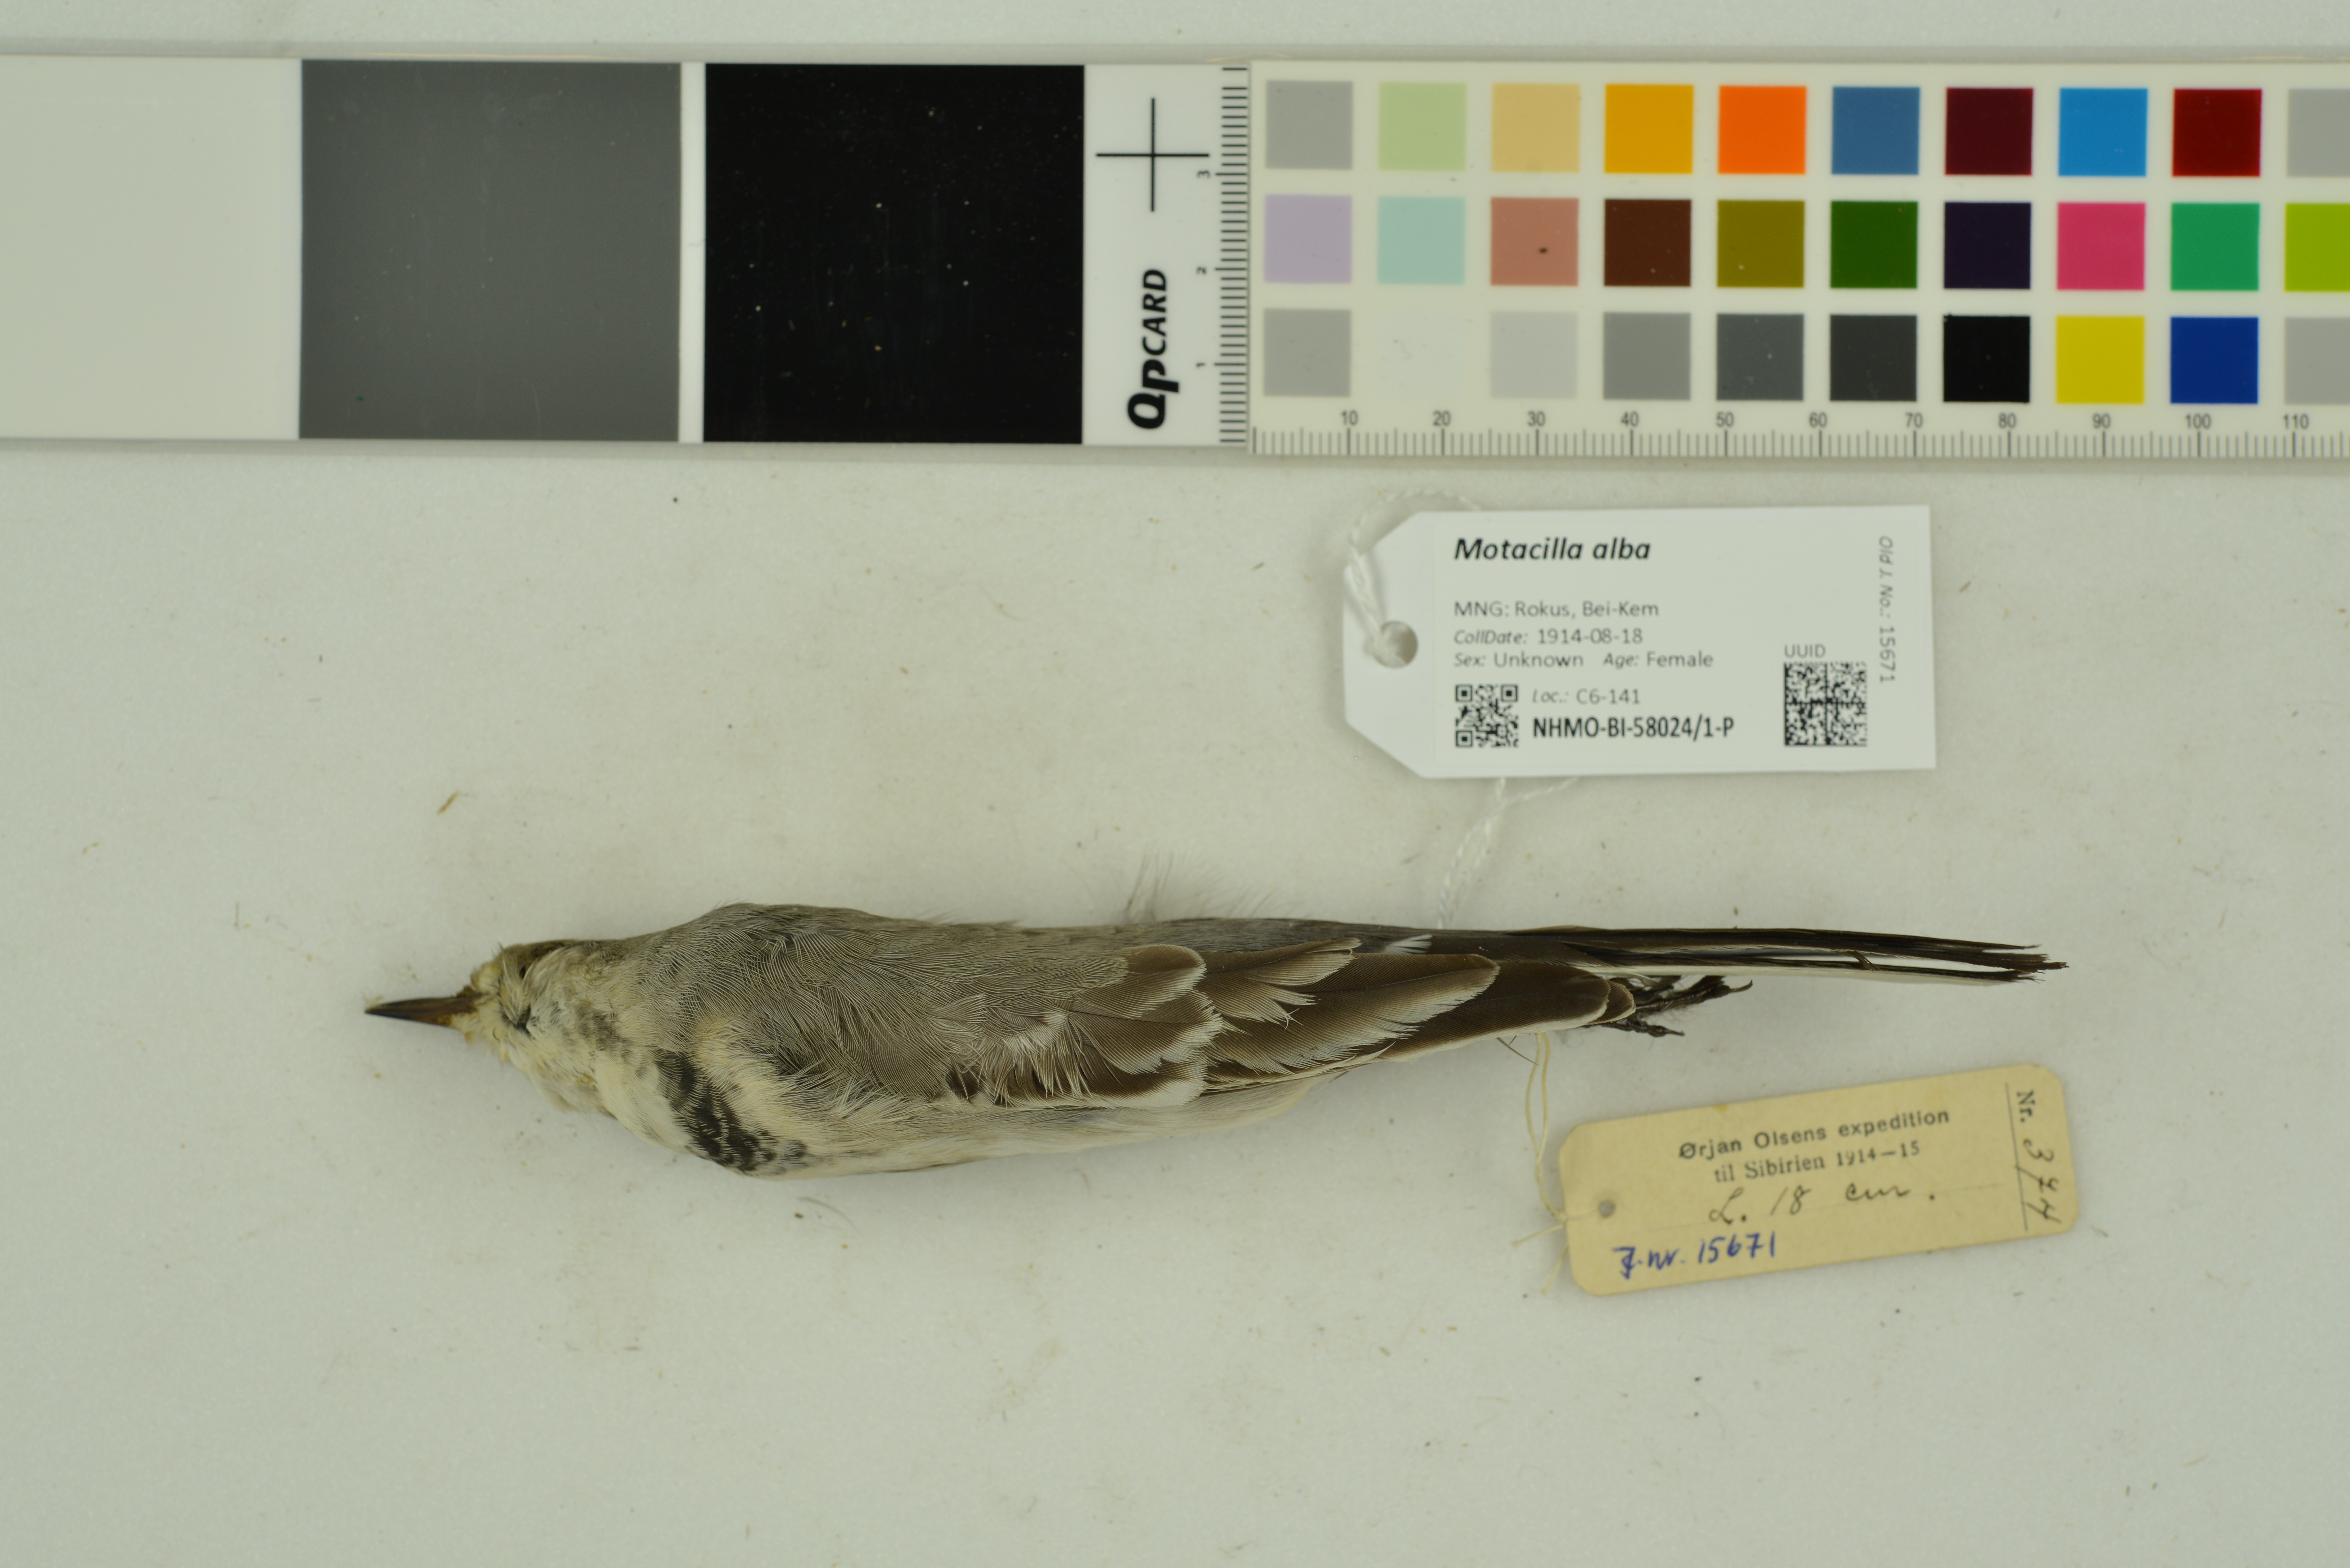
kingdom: Animalia
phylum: Chordata
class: Aves
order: Passeriformes
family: Motacillidae
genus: Motacilla
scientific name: Motacilla alba
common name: White wagtail
